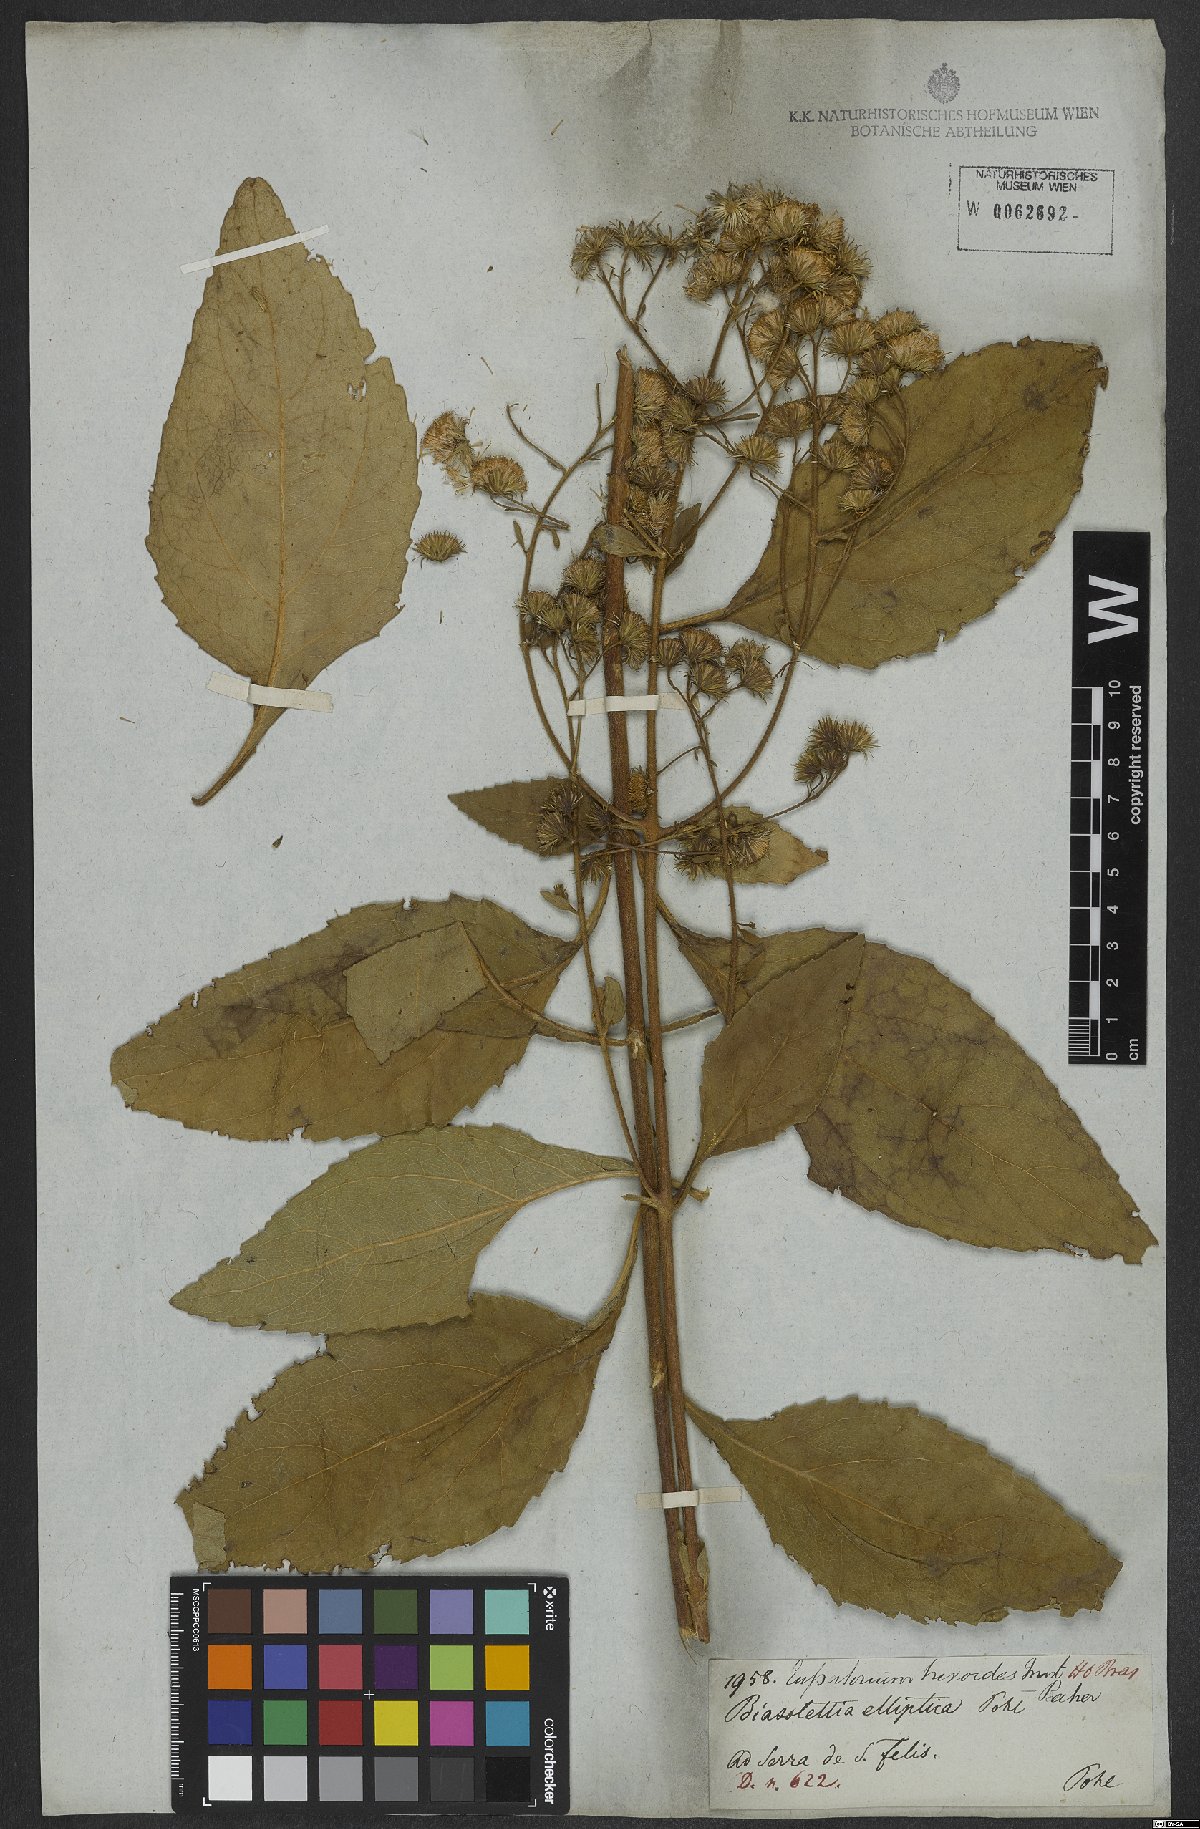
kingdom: Plantae
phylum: Tracheophyta
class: Magnoliopsida
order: Asterales
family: Asteraceae
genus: Ayapanopsis
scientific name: Ayapanopsis oblongifolia
